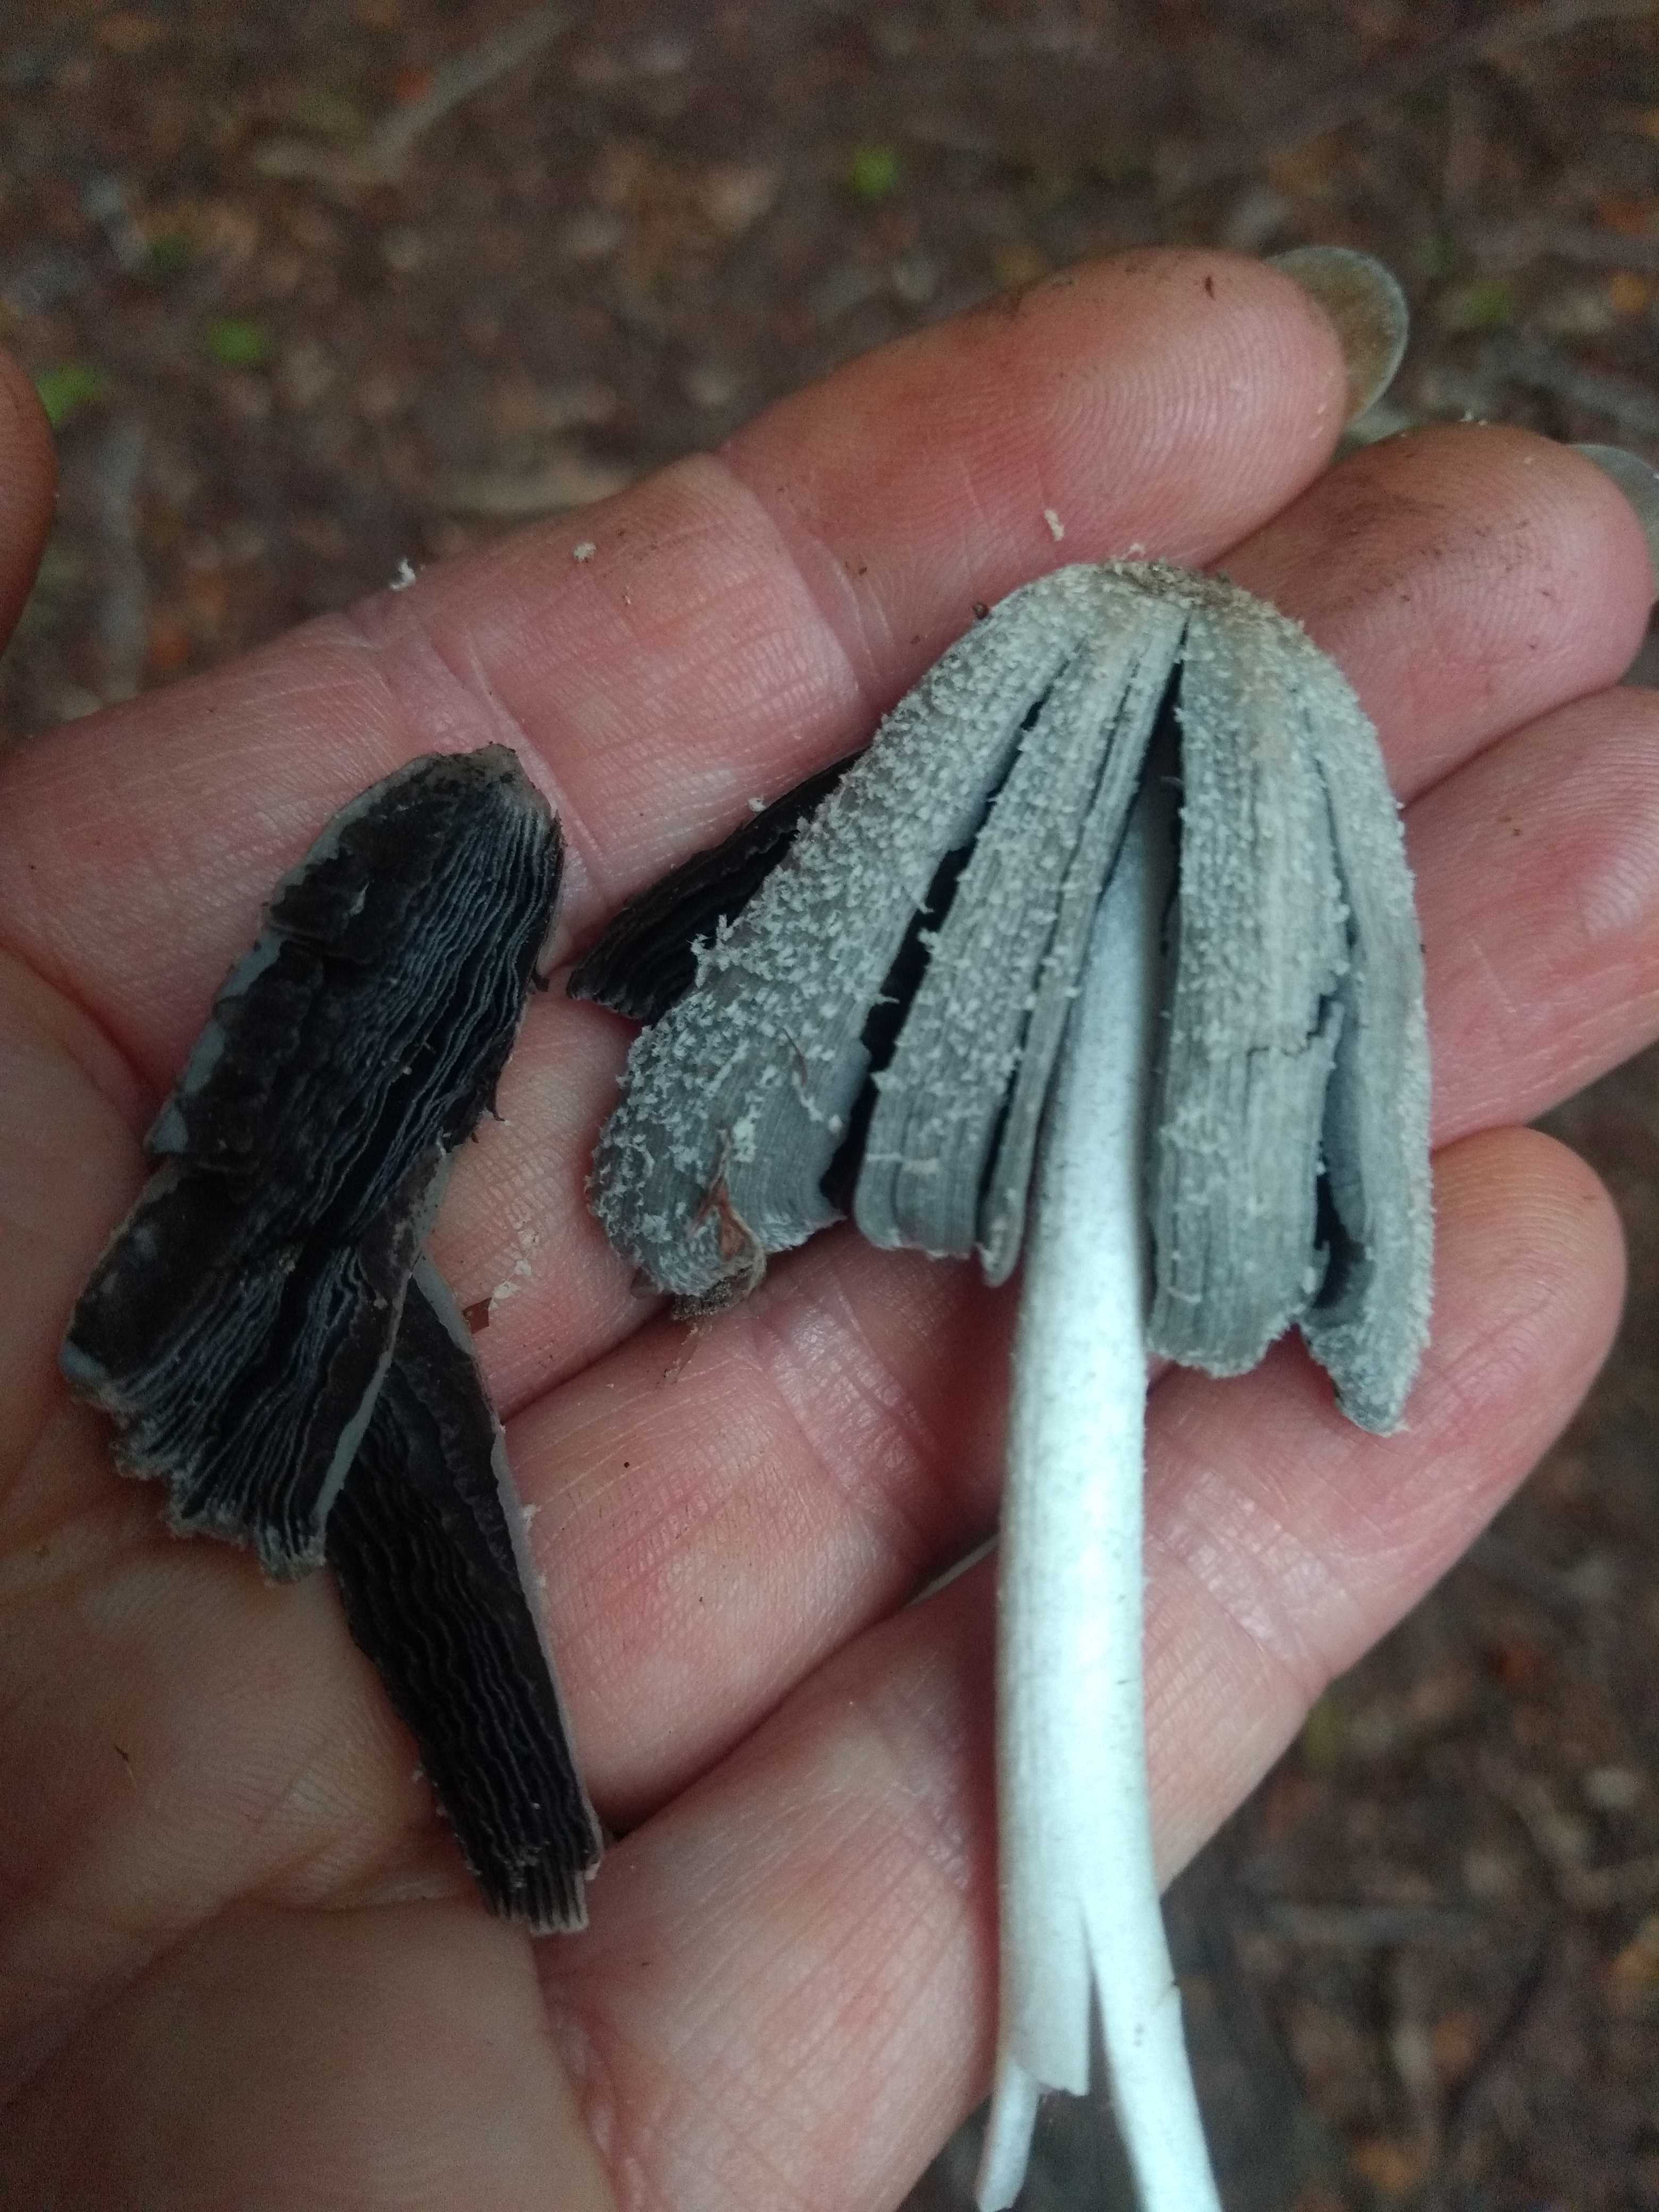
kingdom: Fungi
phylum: Basidiomycota
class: Agaricomycetes
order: Agaricales
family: Psathyrellaceae
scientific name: Psathyrellaceae
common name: mørkhatfamilien
